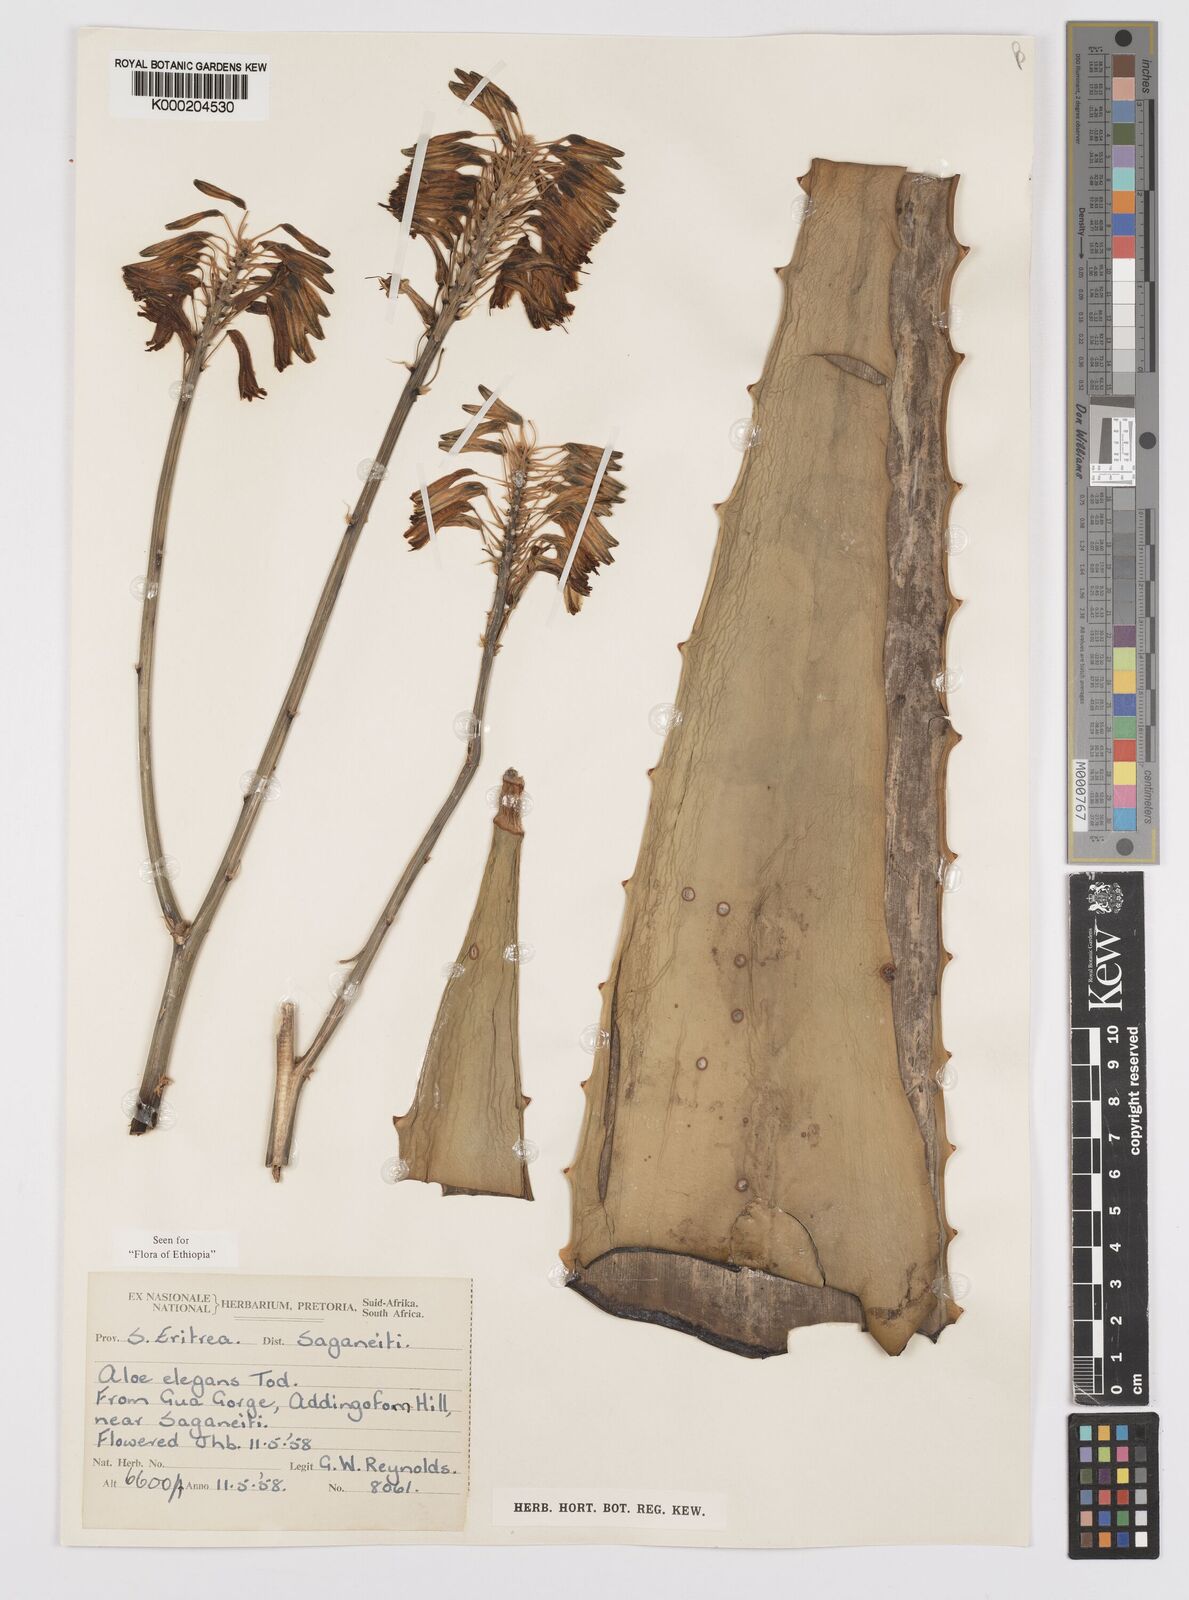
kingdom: Plantae
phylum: Tracheophyta
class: Liliopsida
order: Asparagales
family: Asphodelaceae
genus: Aloe
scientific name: Aloe elegans
